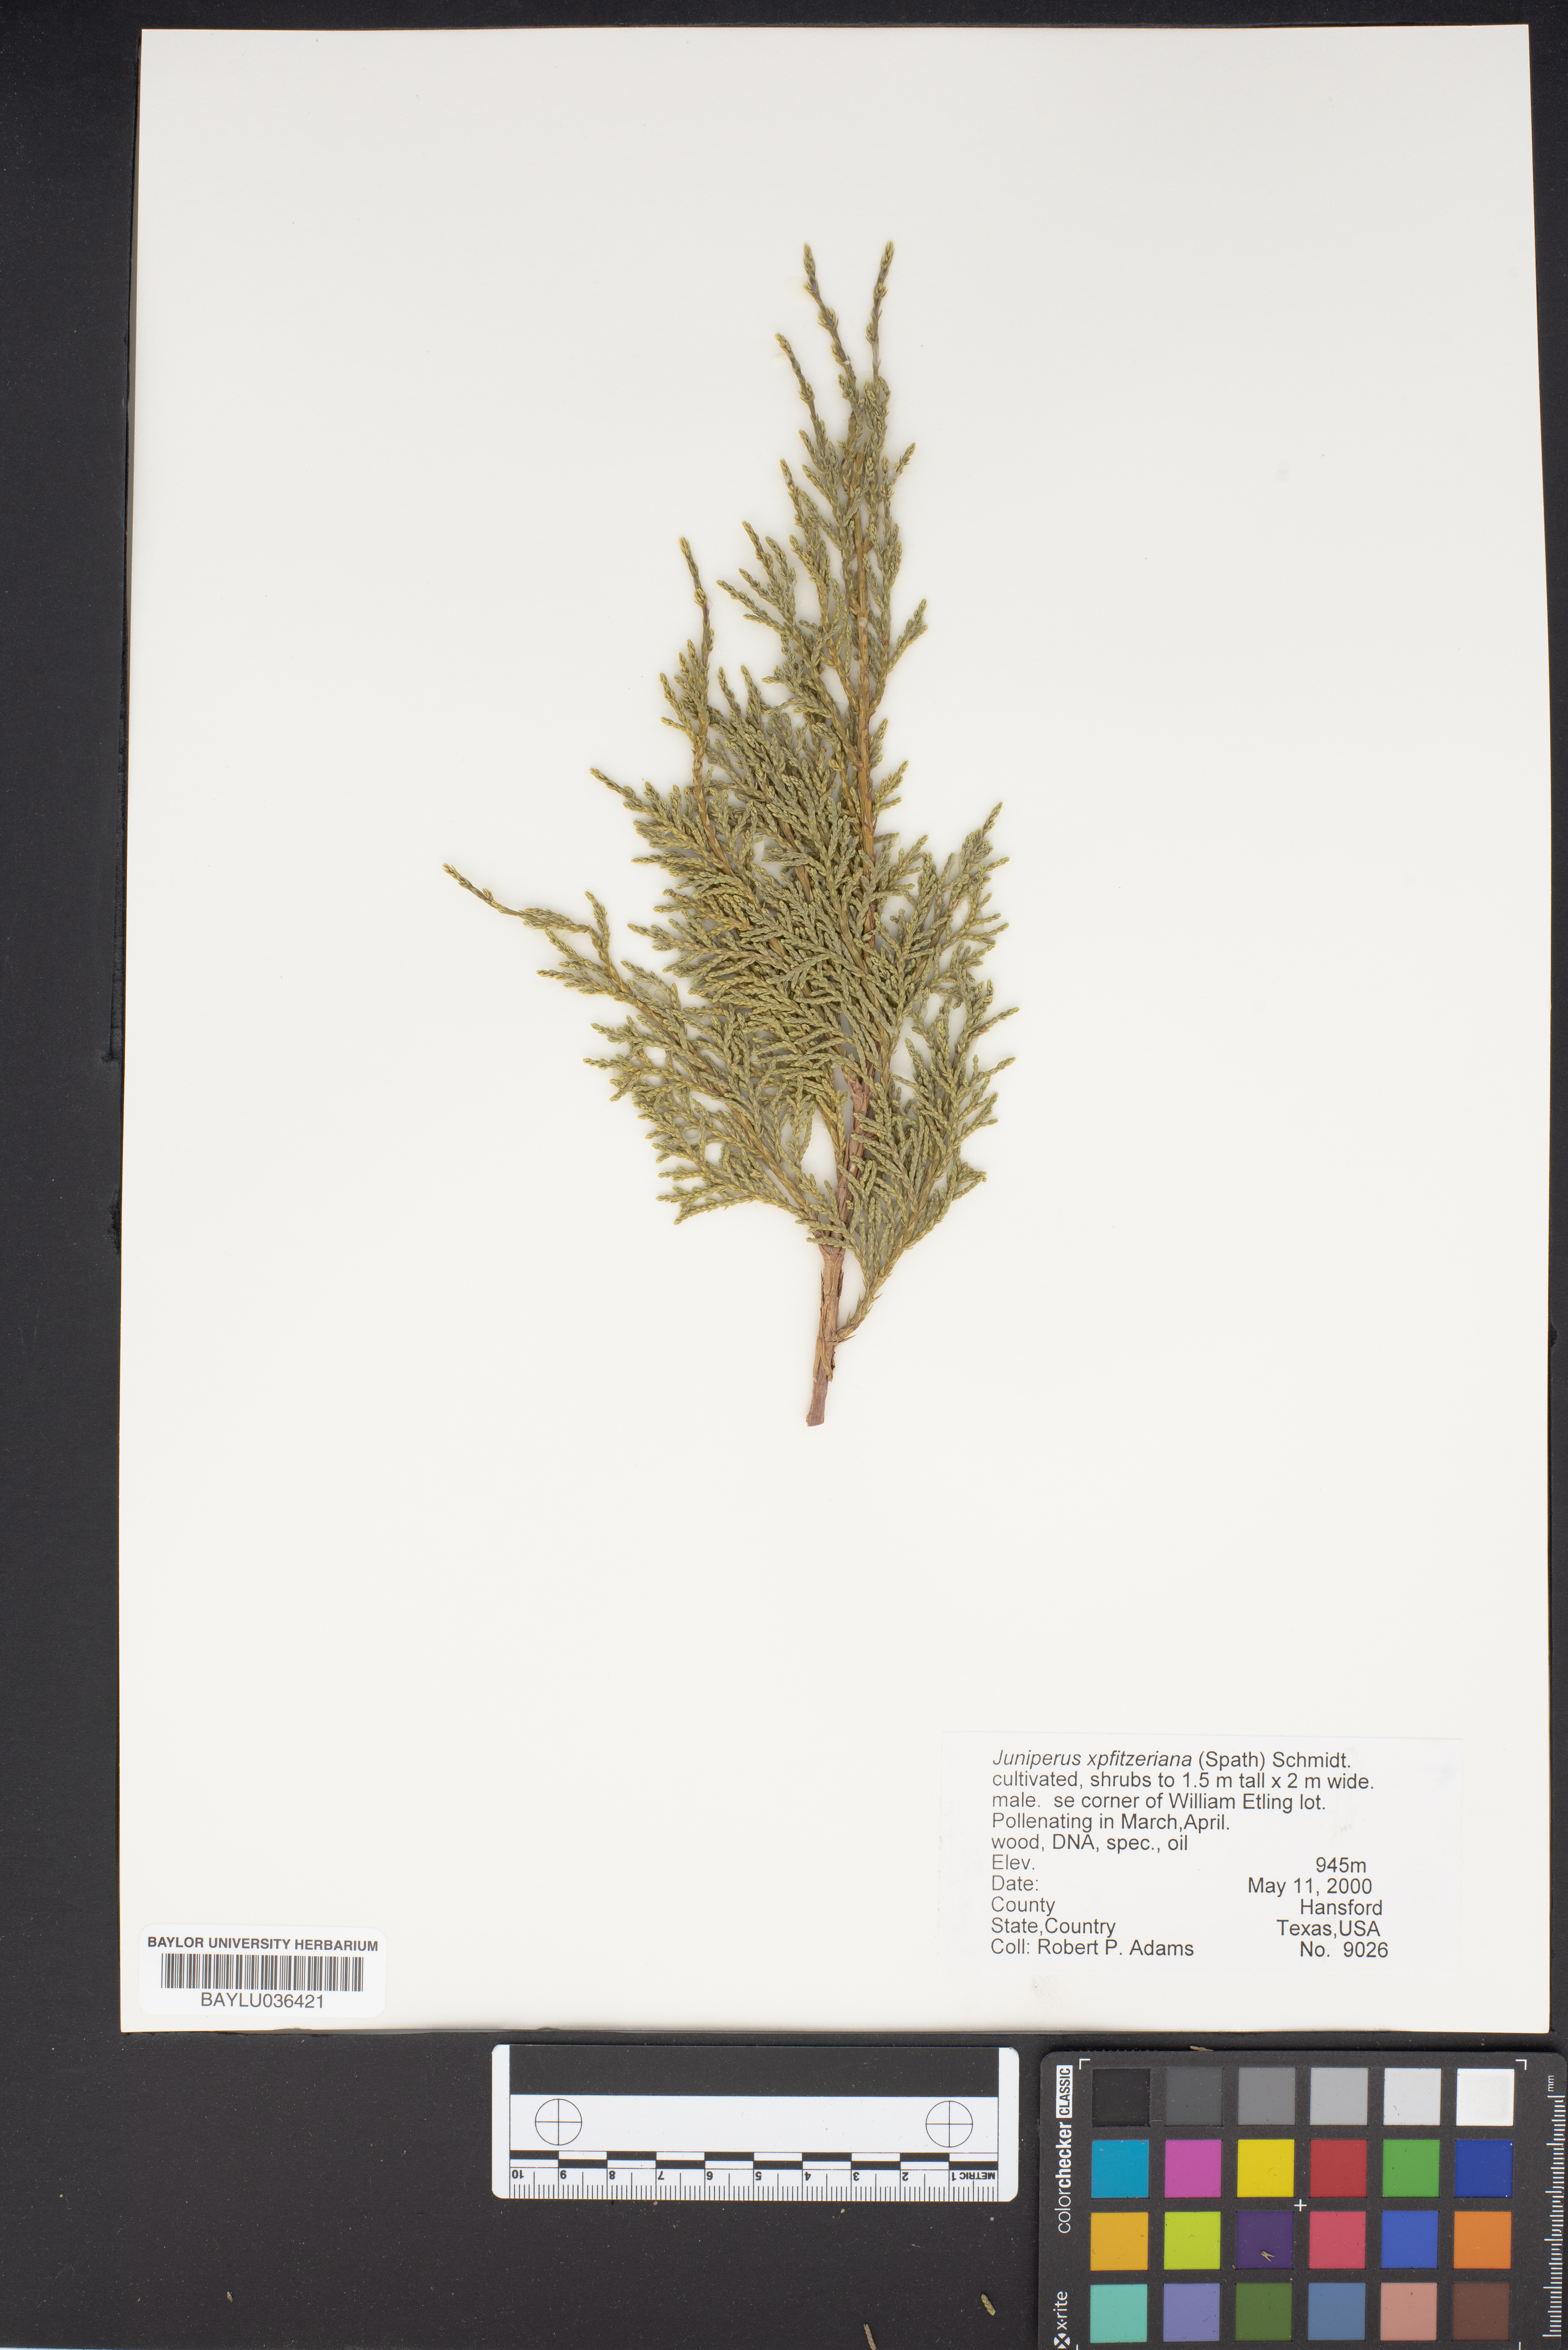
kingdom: Plantae
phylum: Tracheophyta
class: Pinopsida
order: Pinales
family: Cupressaceae
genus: Juniperus
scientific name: Juniperus pfitzeriana
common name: Pfitzer juniper
